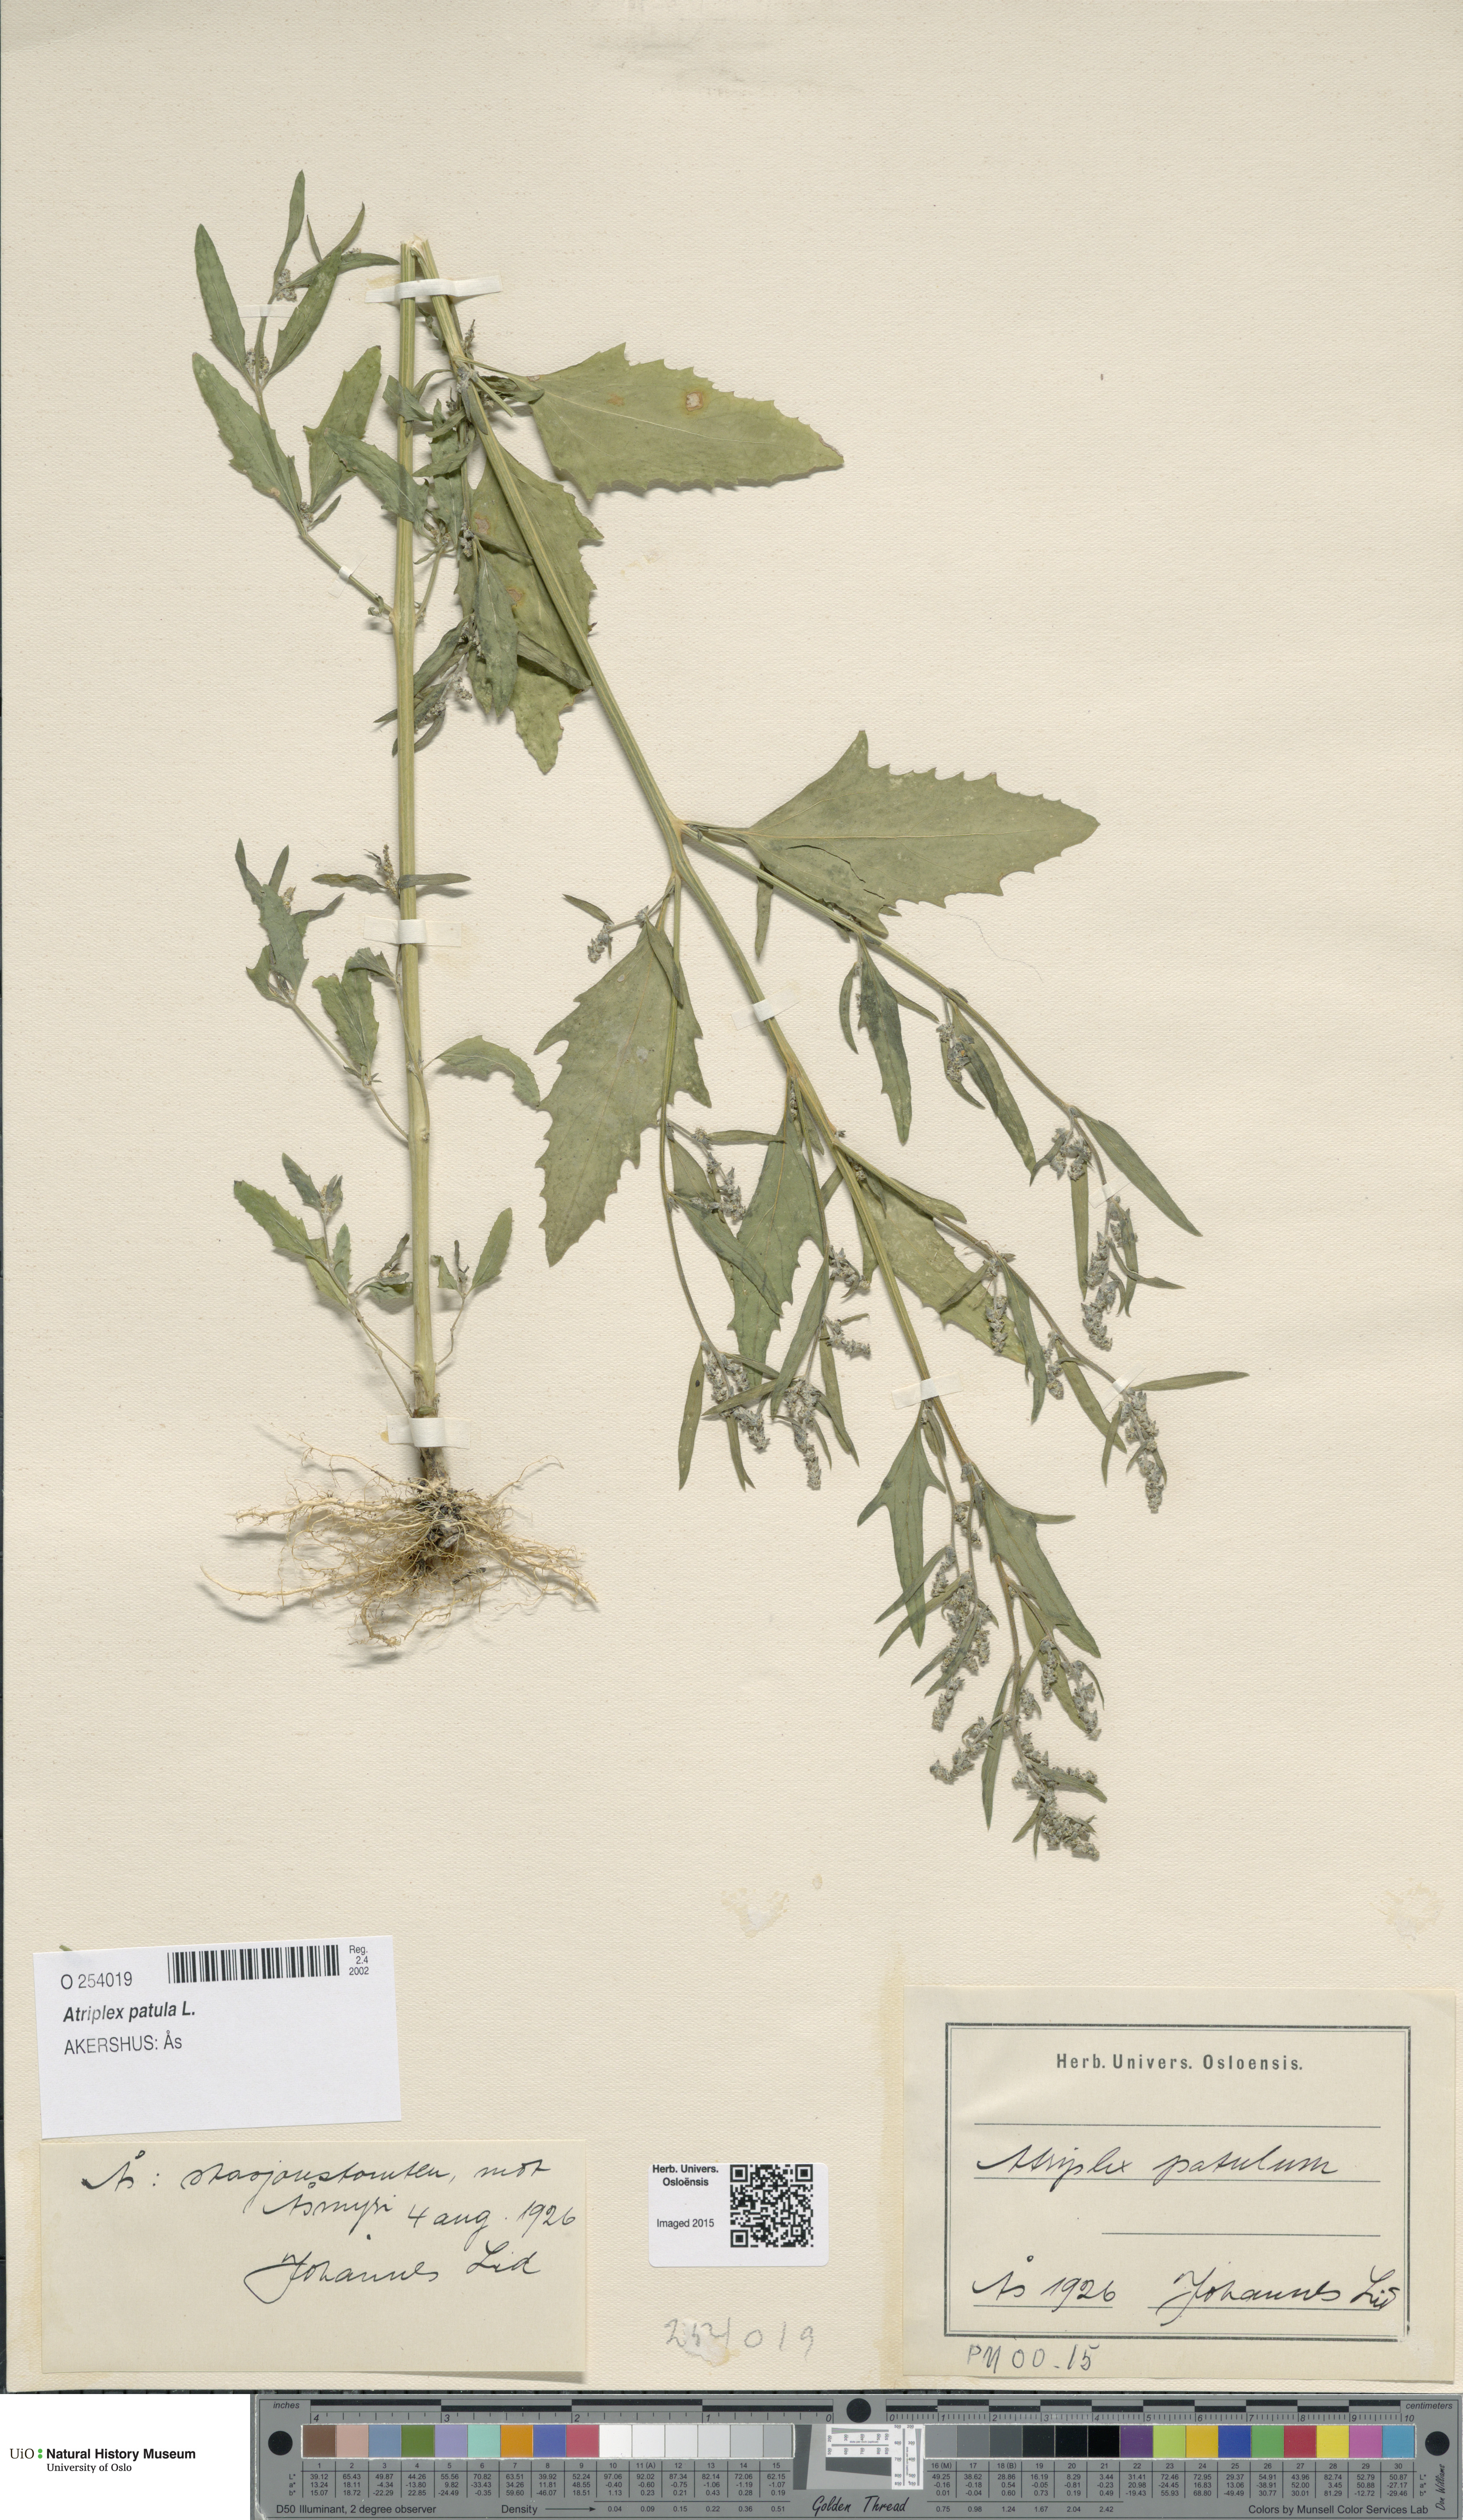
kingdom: Plantae
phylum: Tracheophyta
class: Magnoliopsida
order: Caryophyllales
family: Amaranthaceae
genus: Atriplex
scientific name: Atriplex patula
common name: Common orache
